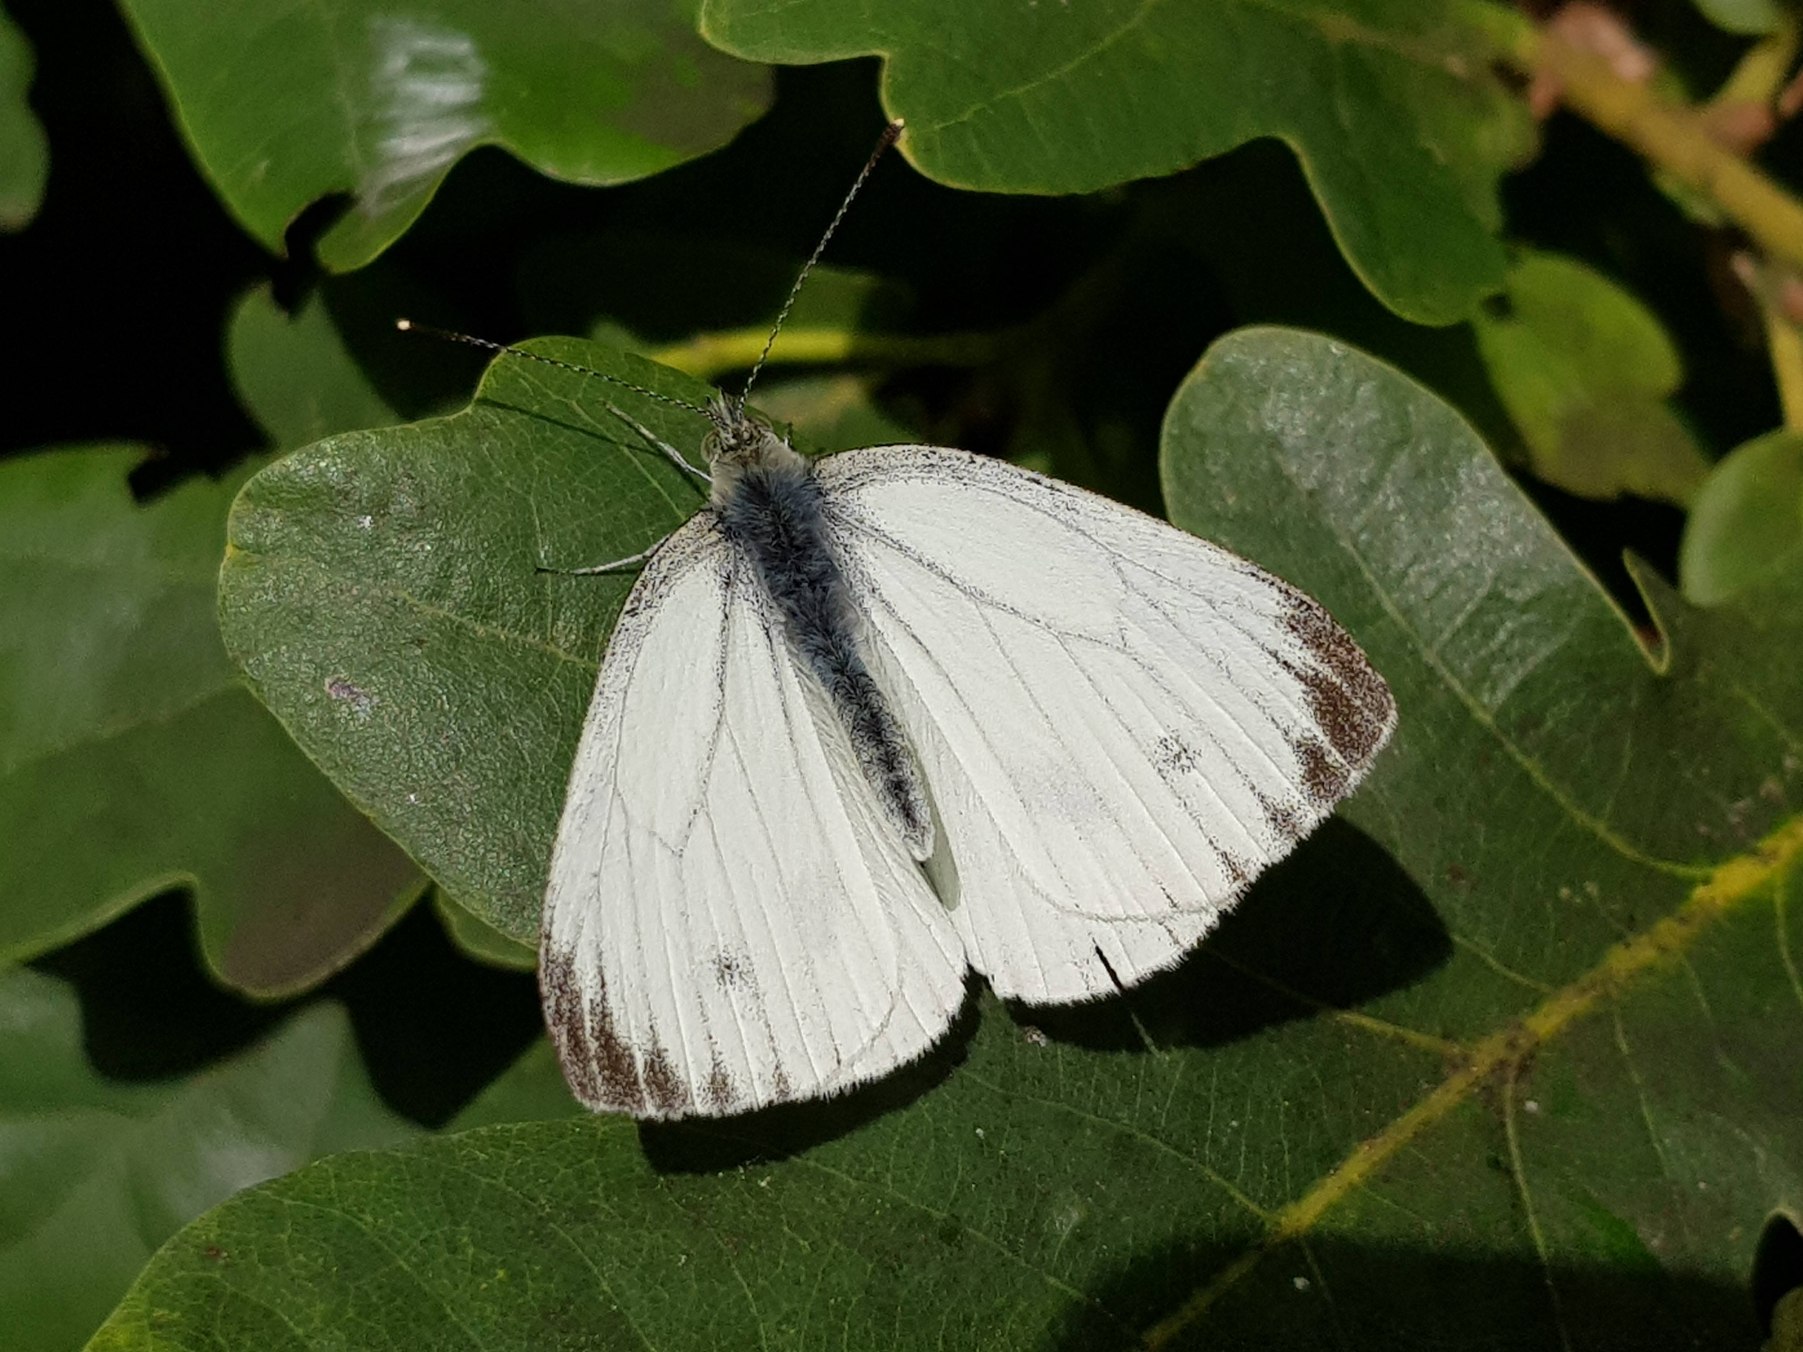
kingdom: Animalia
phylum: Arthropoda
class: Insecta
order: Lepidoptera
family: Pieridae
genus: Pieris
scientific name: Pieris napi
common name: Grønåret kålsommerfugl
